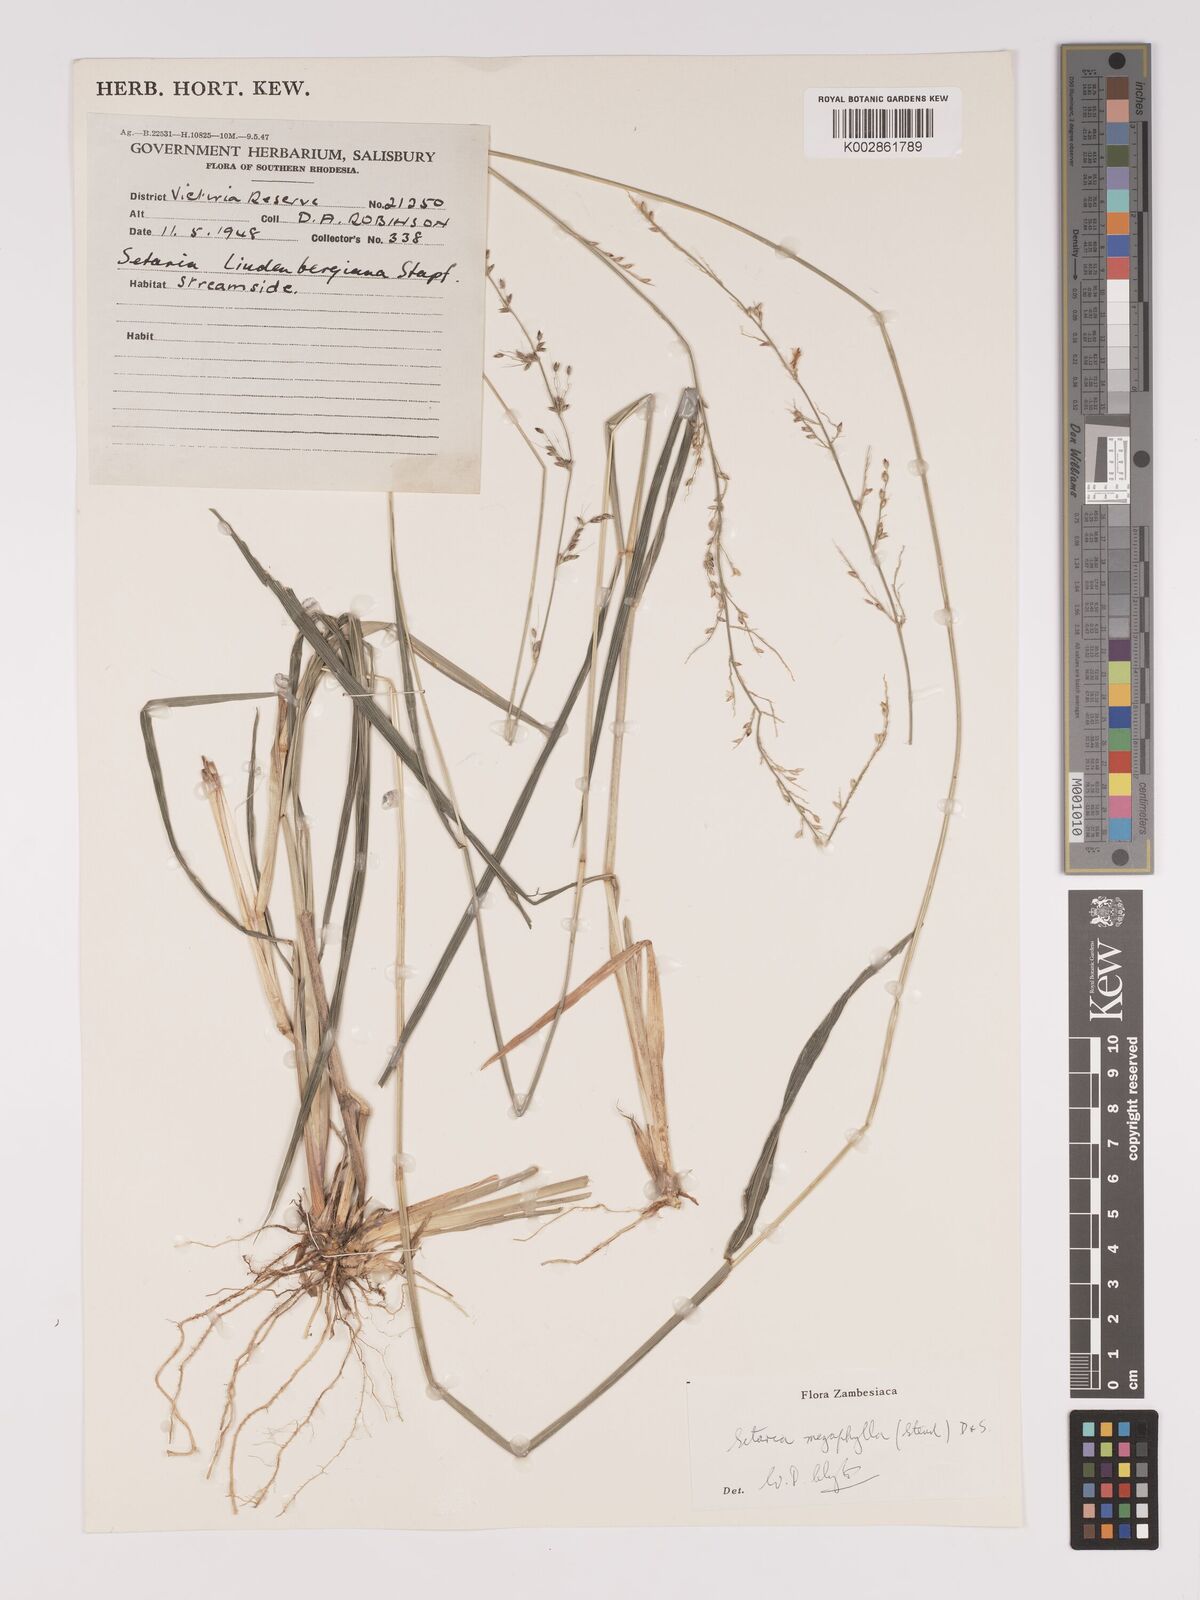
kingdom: Plantae
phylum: Tracheophyta
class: Liliopsida
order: Poales
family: Poaceae
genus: Setaria
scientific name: Setaria megaphylla
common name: Bigleaf bristlegrass
